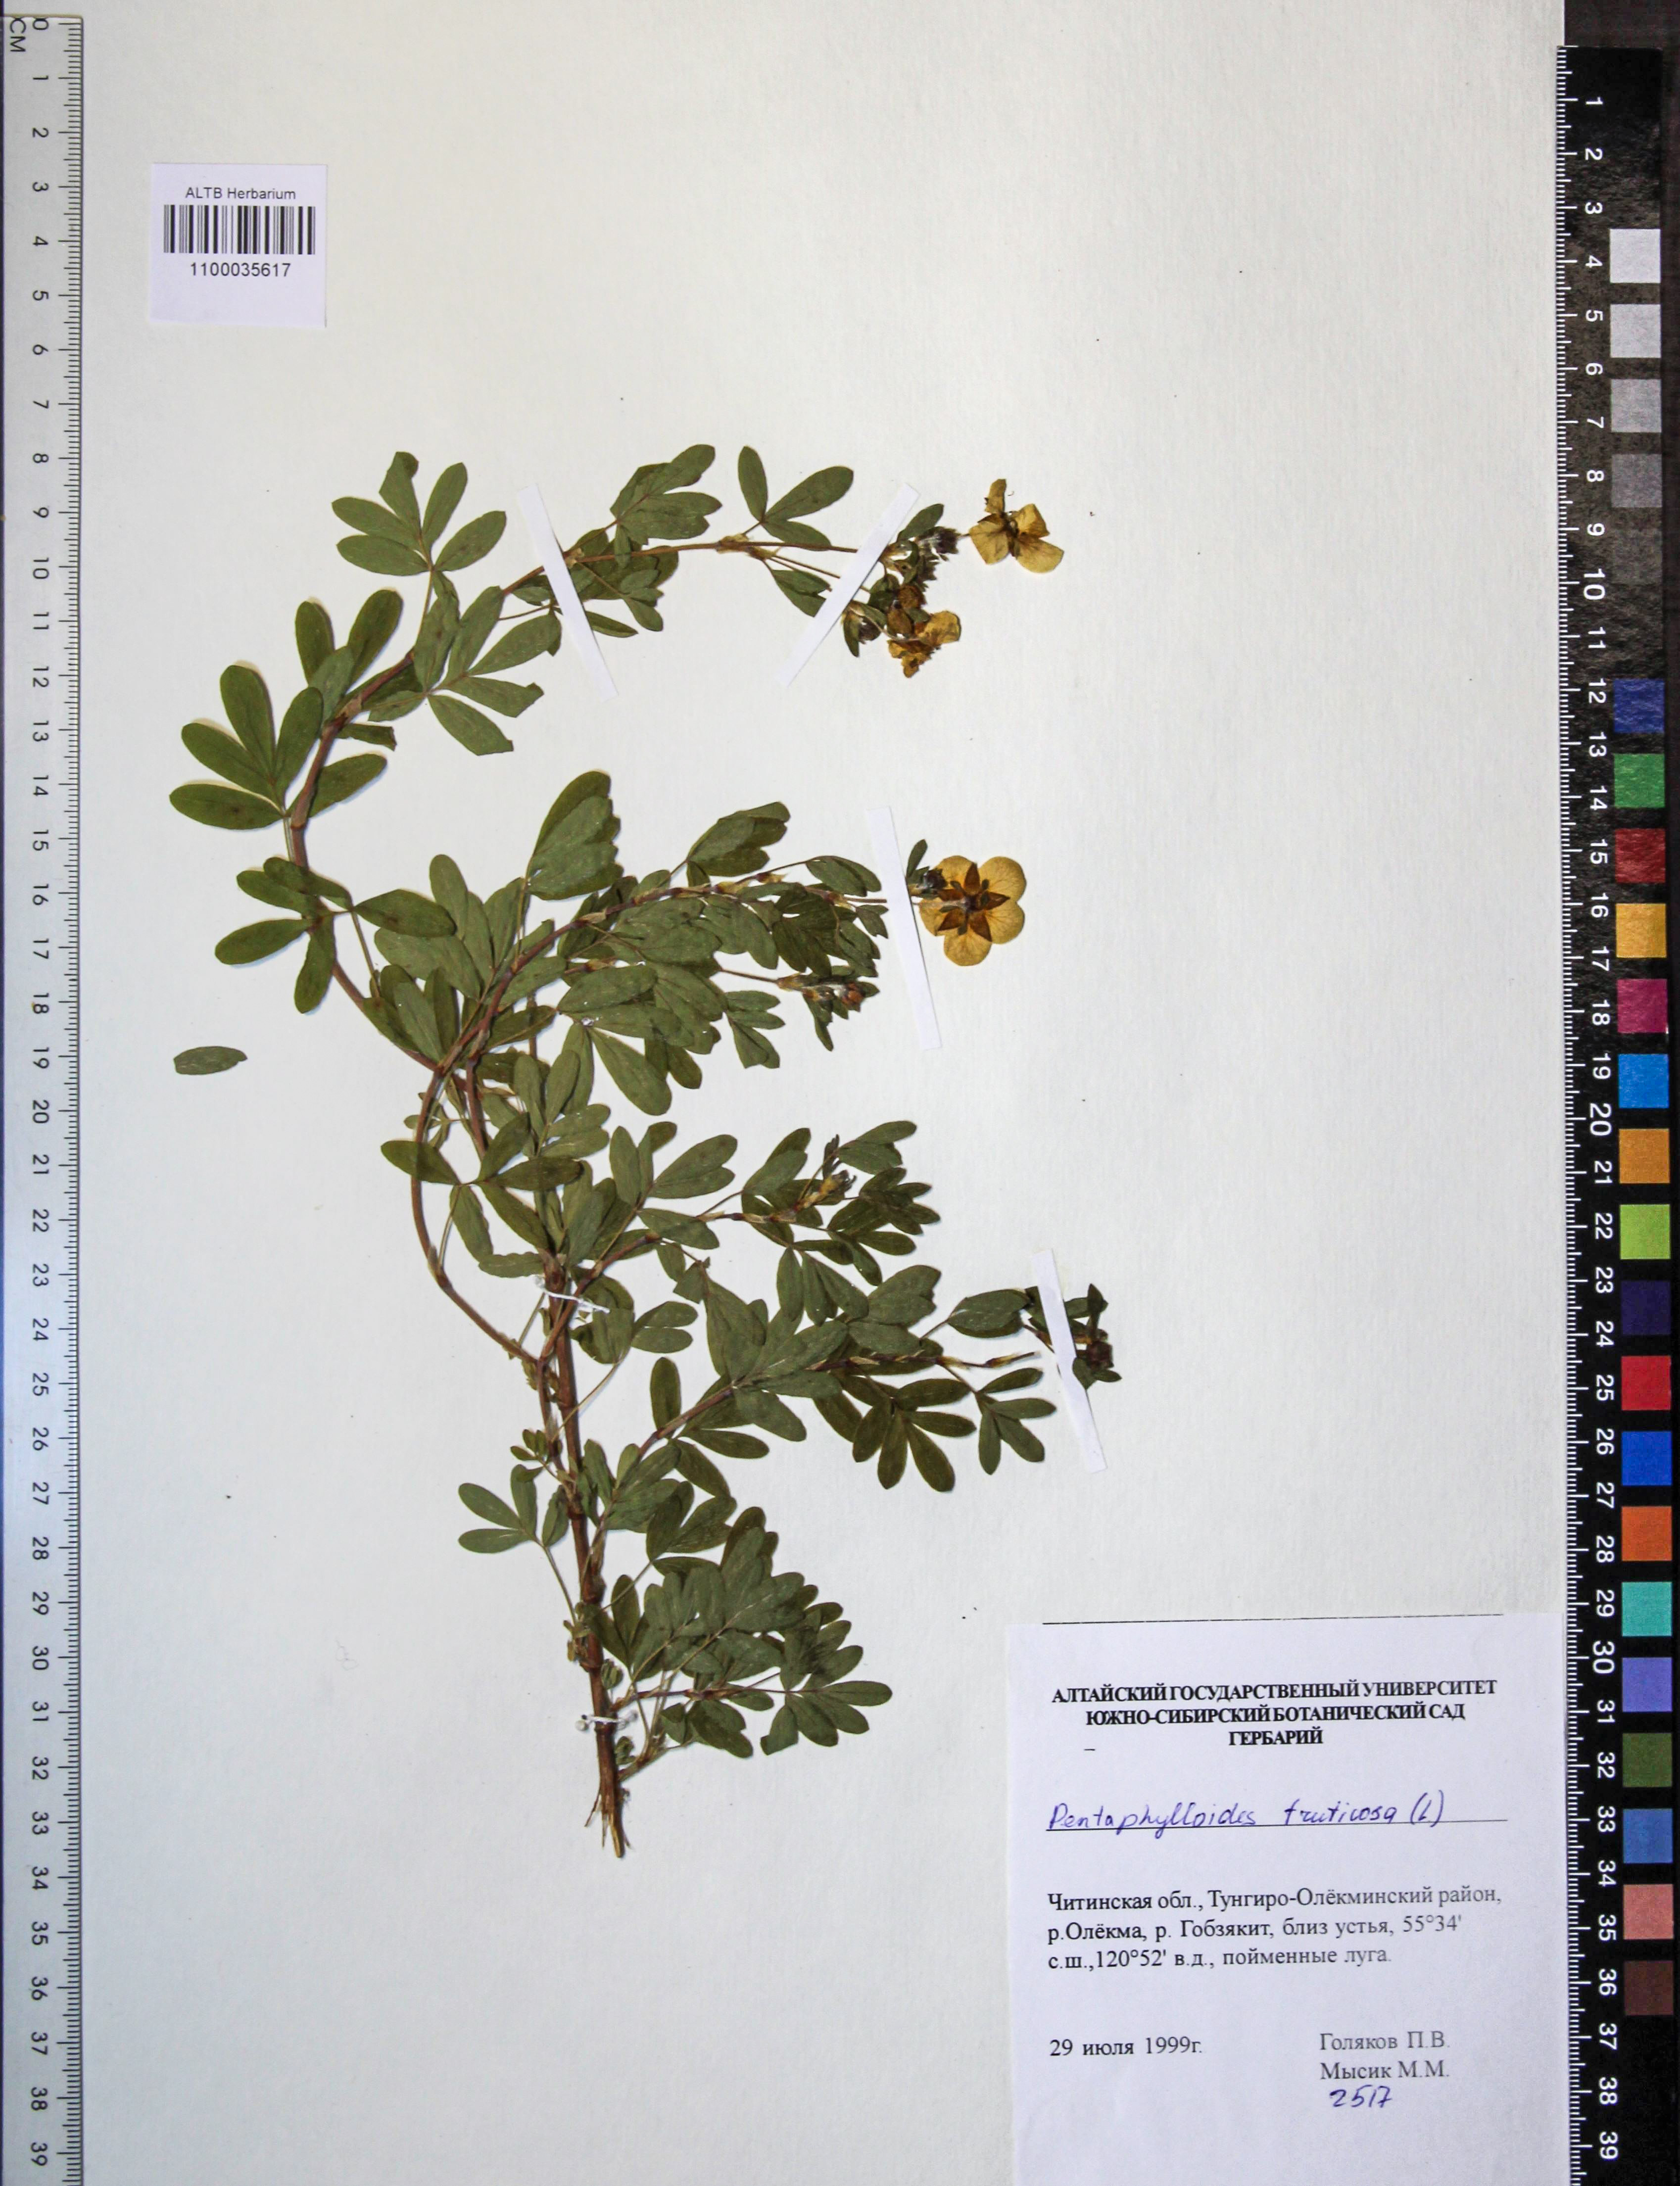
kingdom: Plantae
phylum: Tracheophyta
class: Magnoliopsida
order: Rosales
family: Rosaceae
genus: Dasiphora
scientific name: Dasiphora fruticosa
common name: Shrubby cinquefoil
